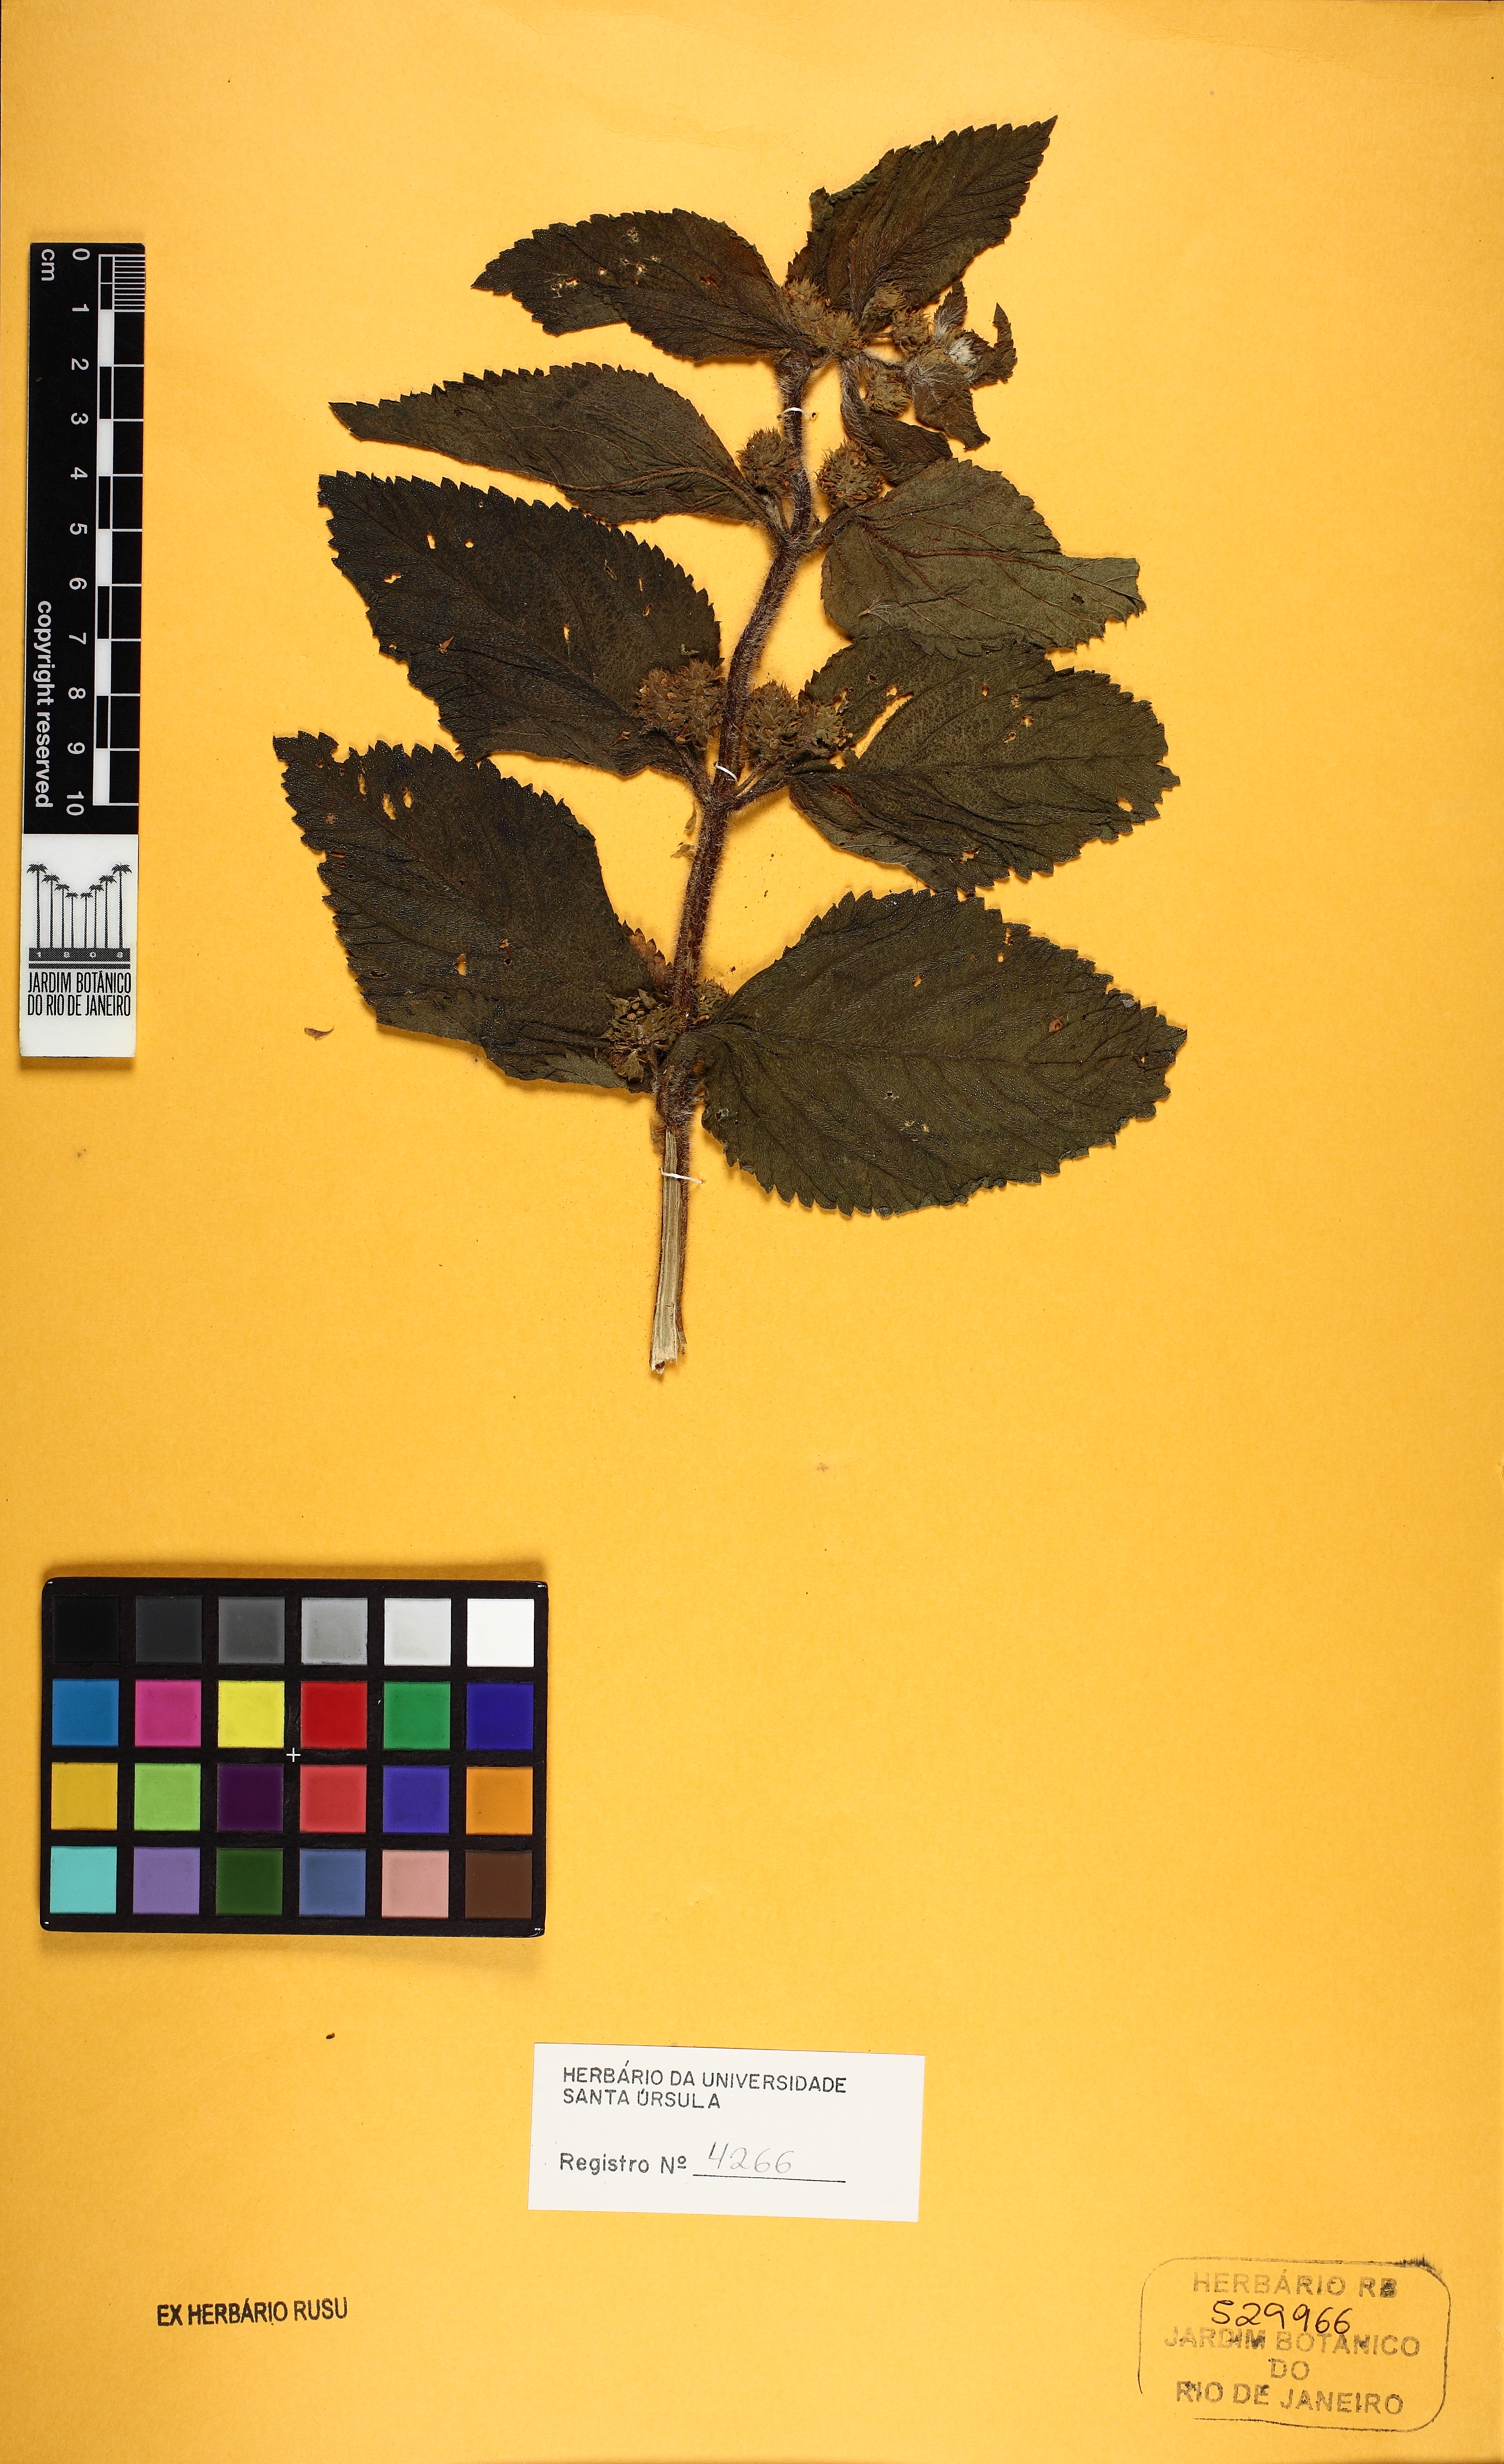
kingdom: Plantae
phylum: Tracheophyta
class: Magnoliopsida
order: Lamiales
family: Verbenaceae
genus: Lantana
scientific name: Lantana
